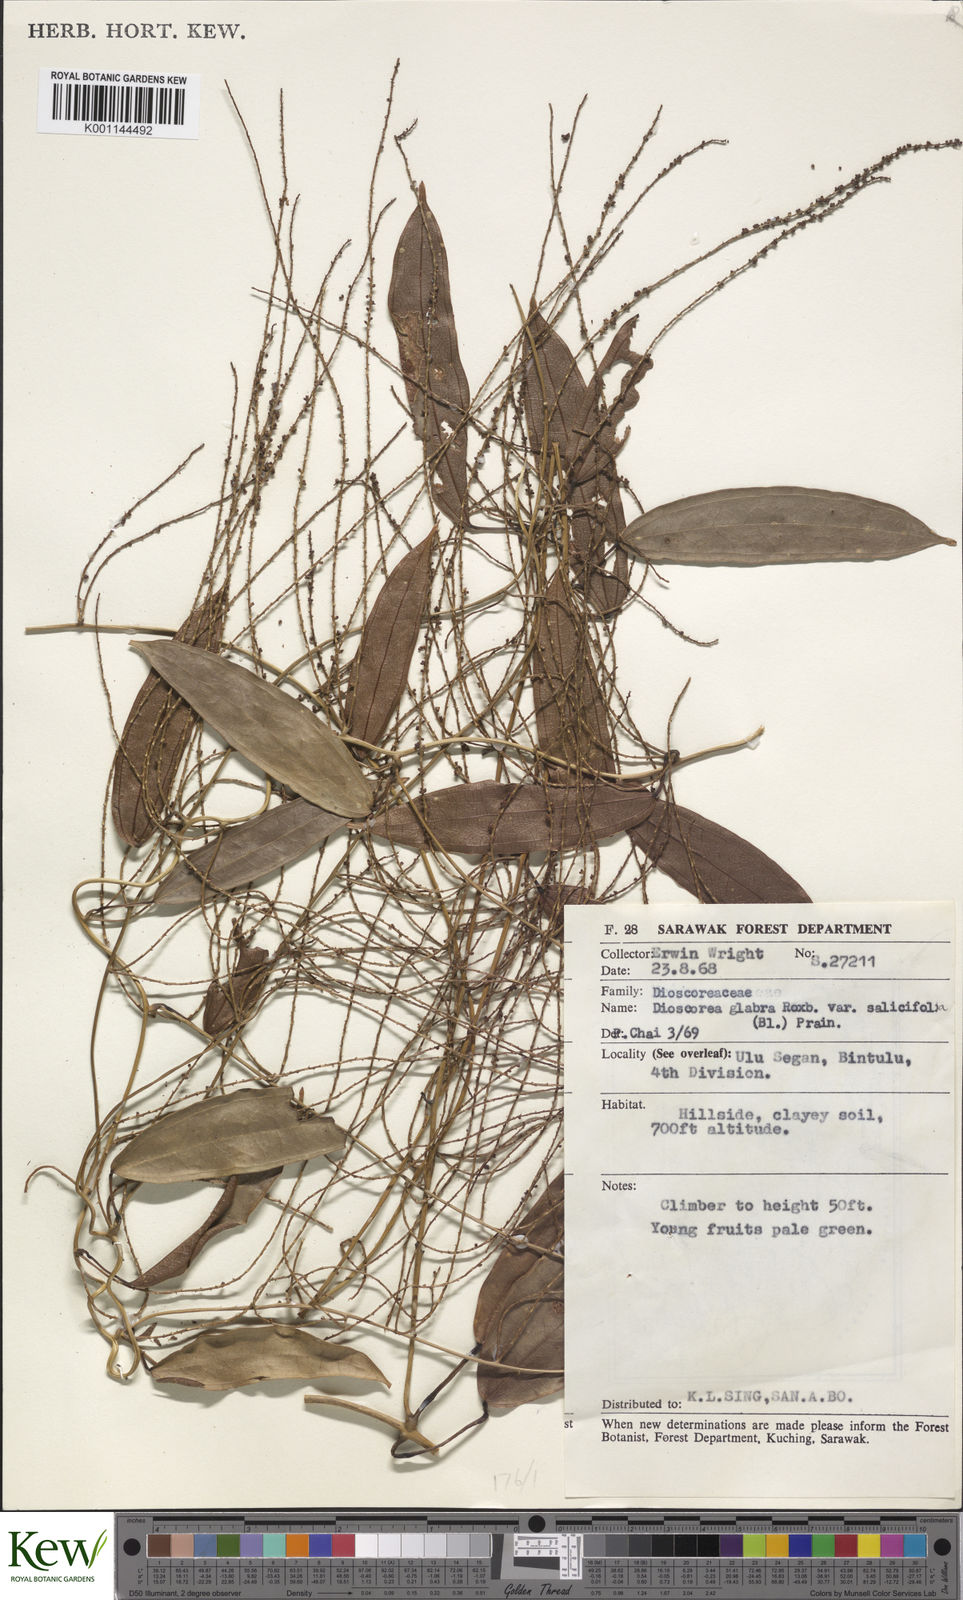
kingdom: Plantae
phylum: Tracheophyta
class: Liliopsida
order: Dioscoreales
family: Dioscoreaceae
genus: Dioscorea
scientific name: Dioscorea salicifolia
